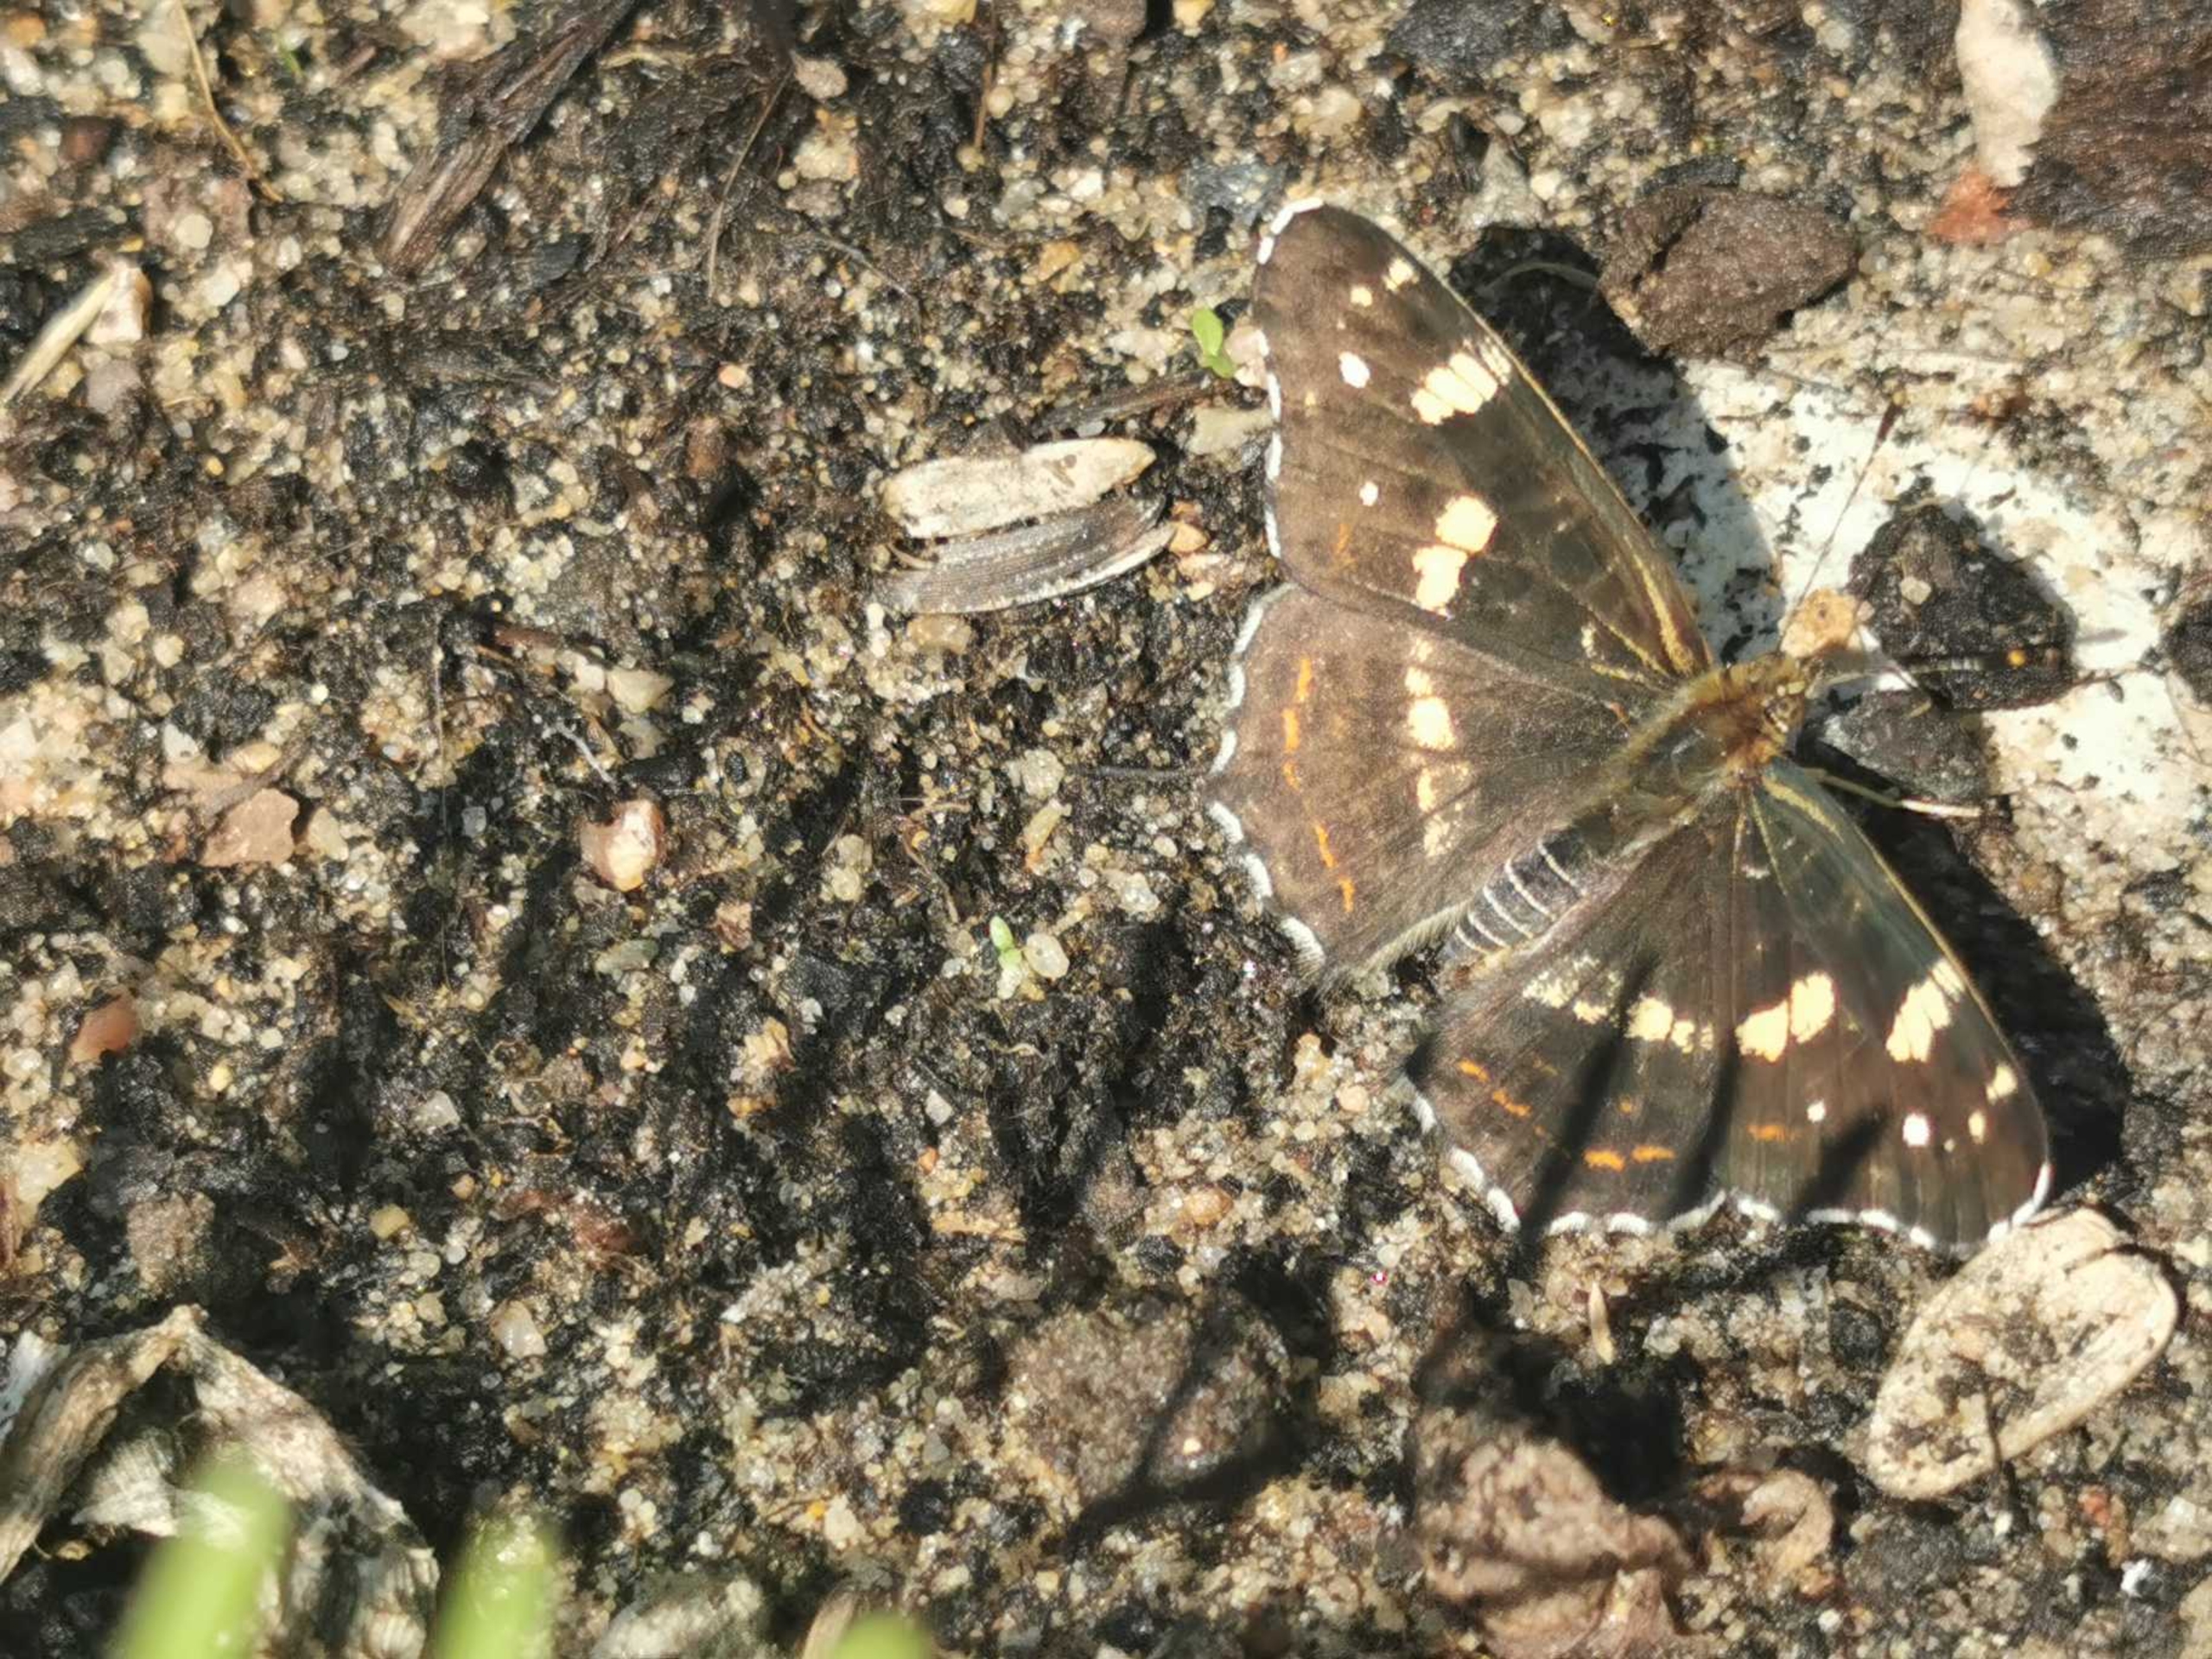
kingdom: Animalia
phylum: Arthropoda
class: Insecta
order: Lepidoptera
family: Nymphalidae
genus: Araschnia
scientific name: Araschnia levana
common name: Nældesommerfugl
